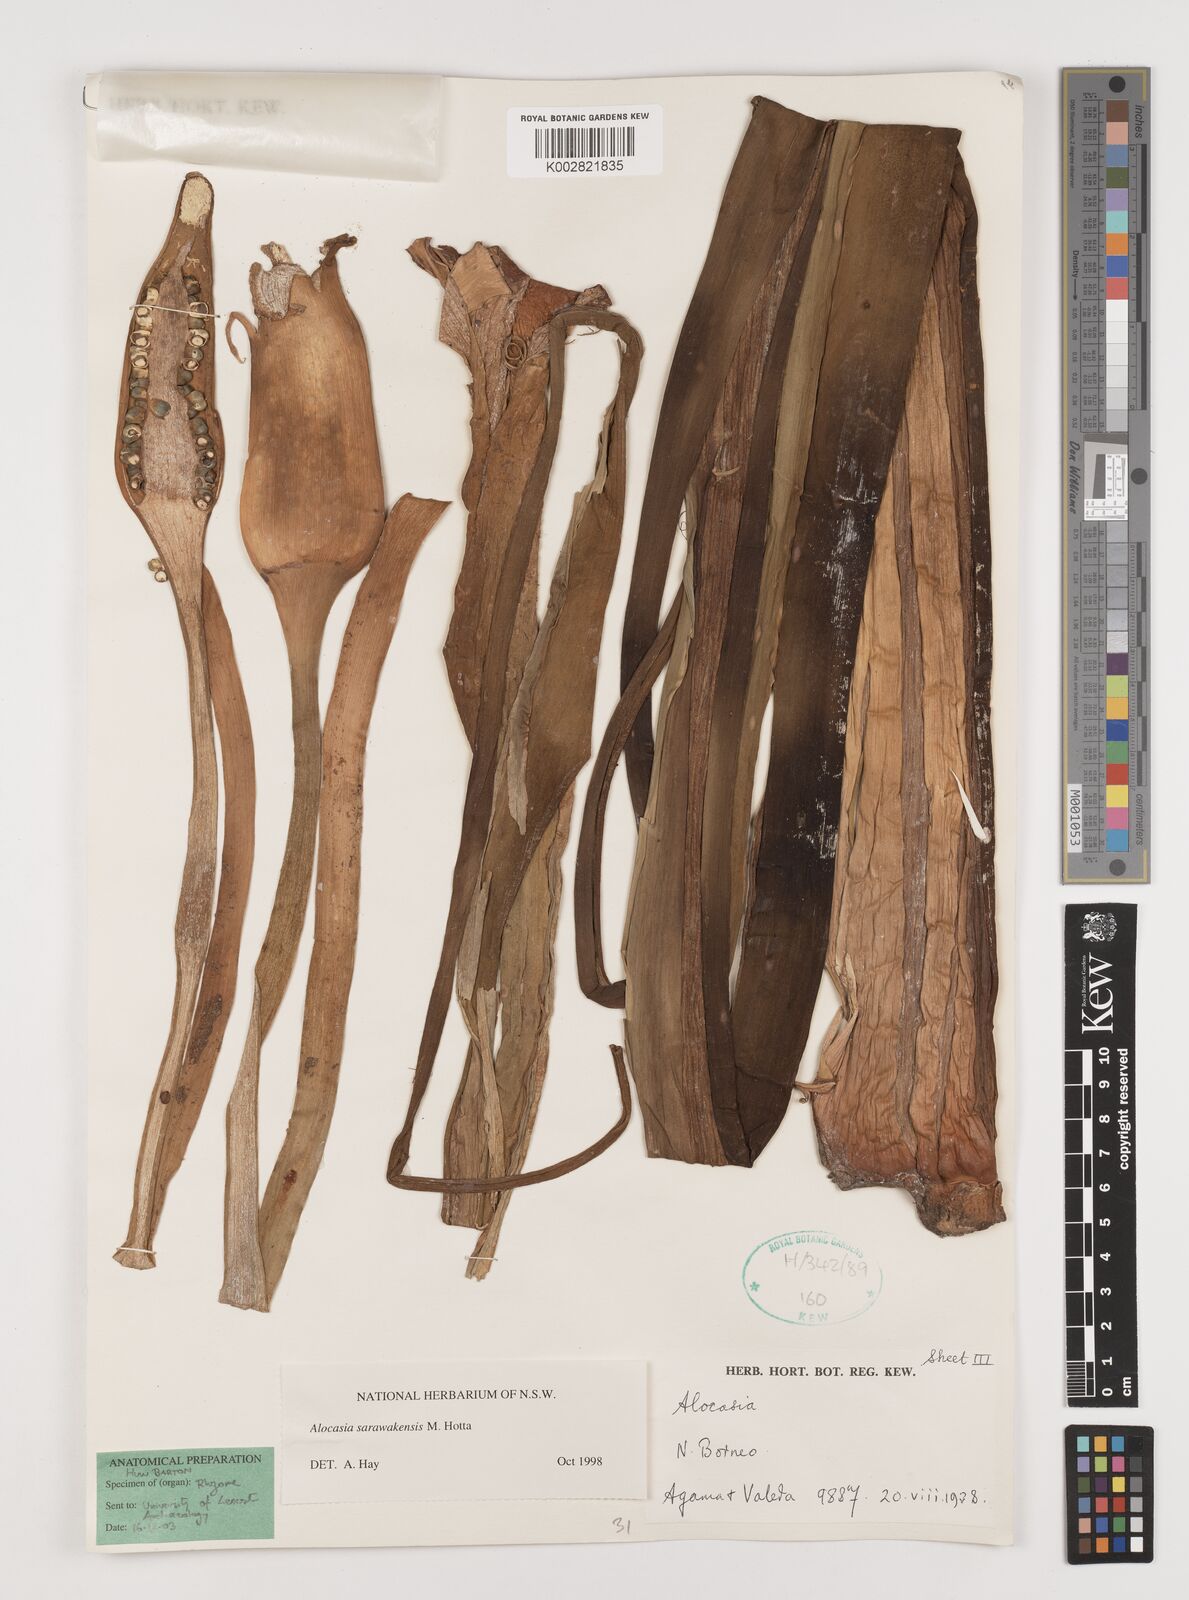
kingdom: Plantae
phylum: Tracheophyta
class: Liliopsida
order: Alismatales
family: Araceae
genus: Alocasia
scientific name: Alocasia sarawakensis
